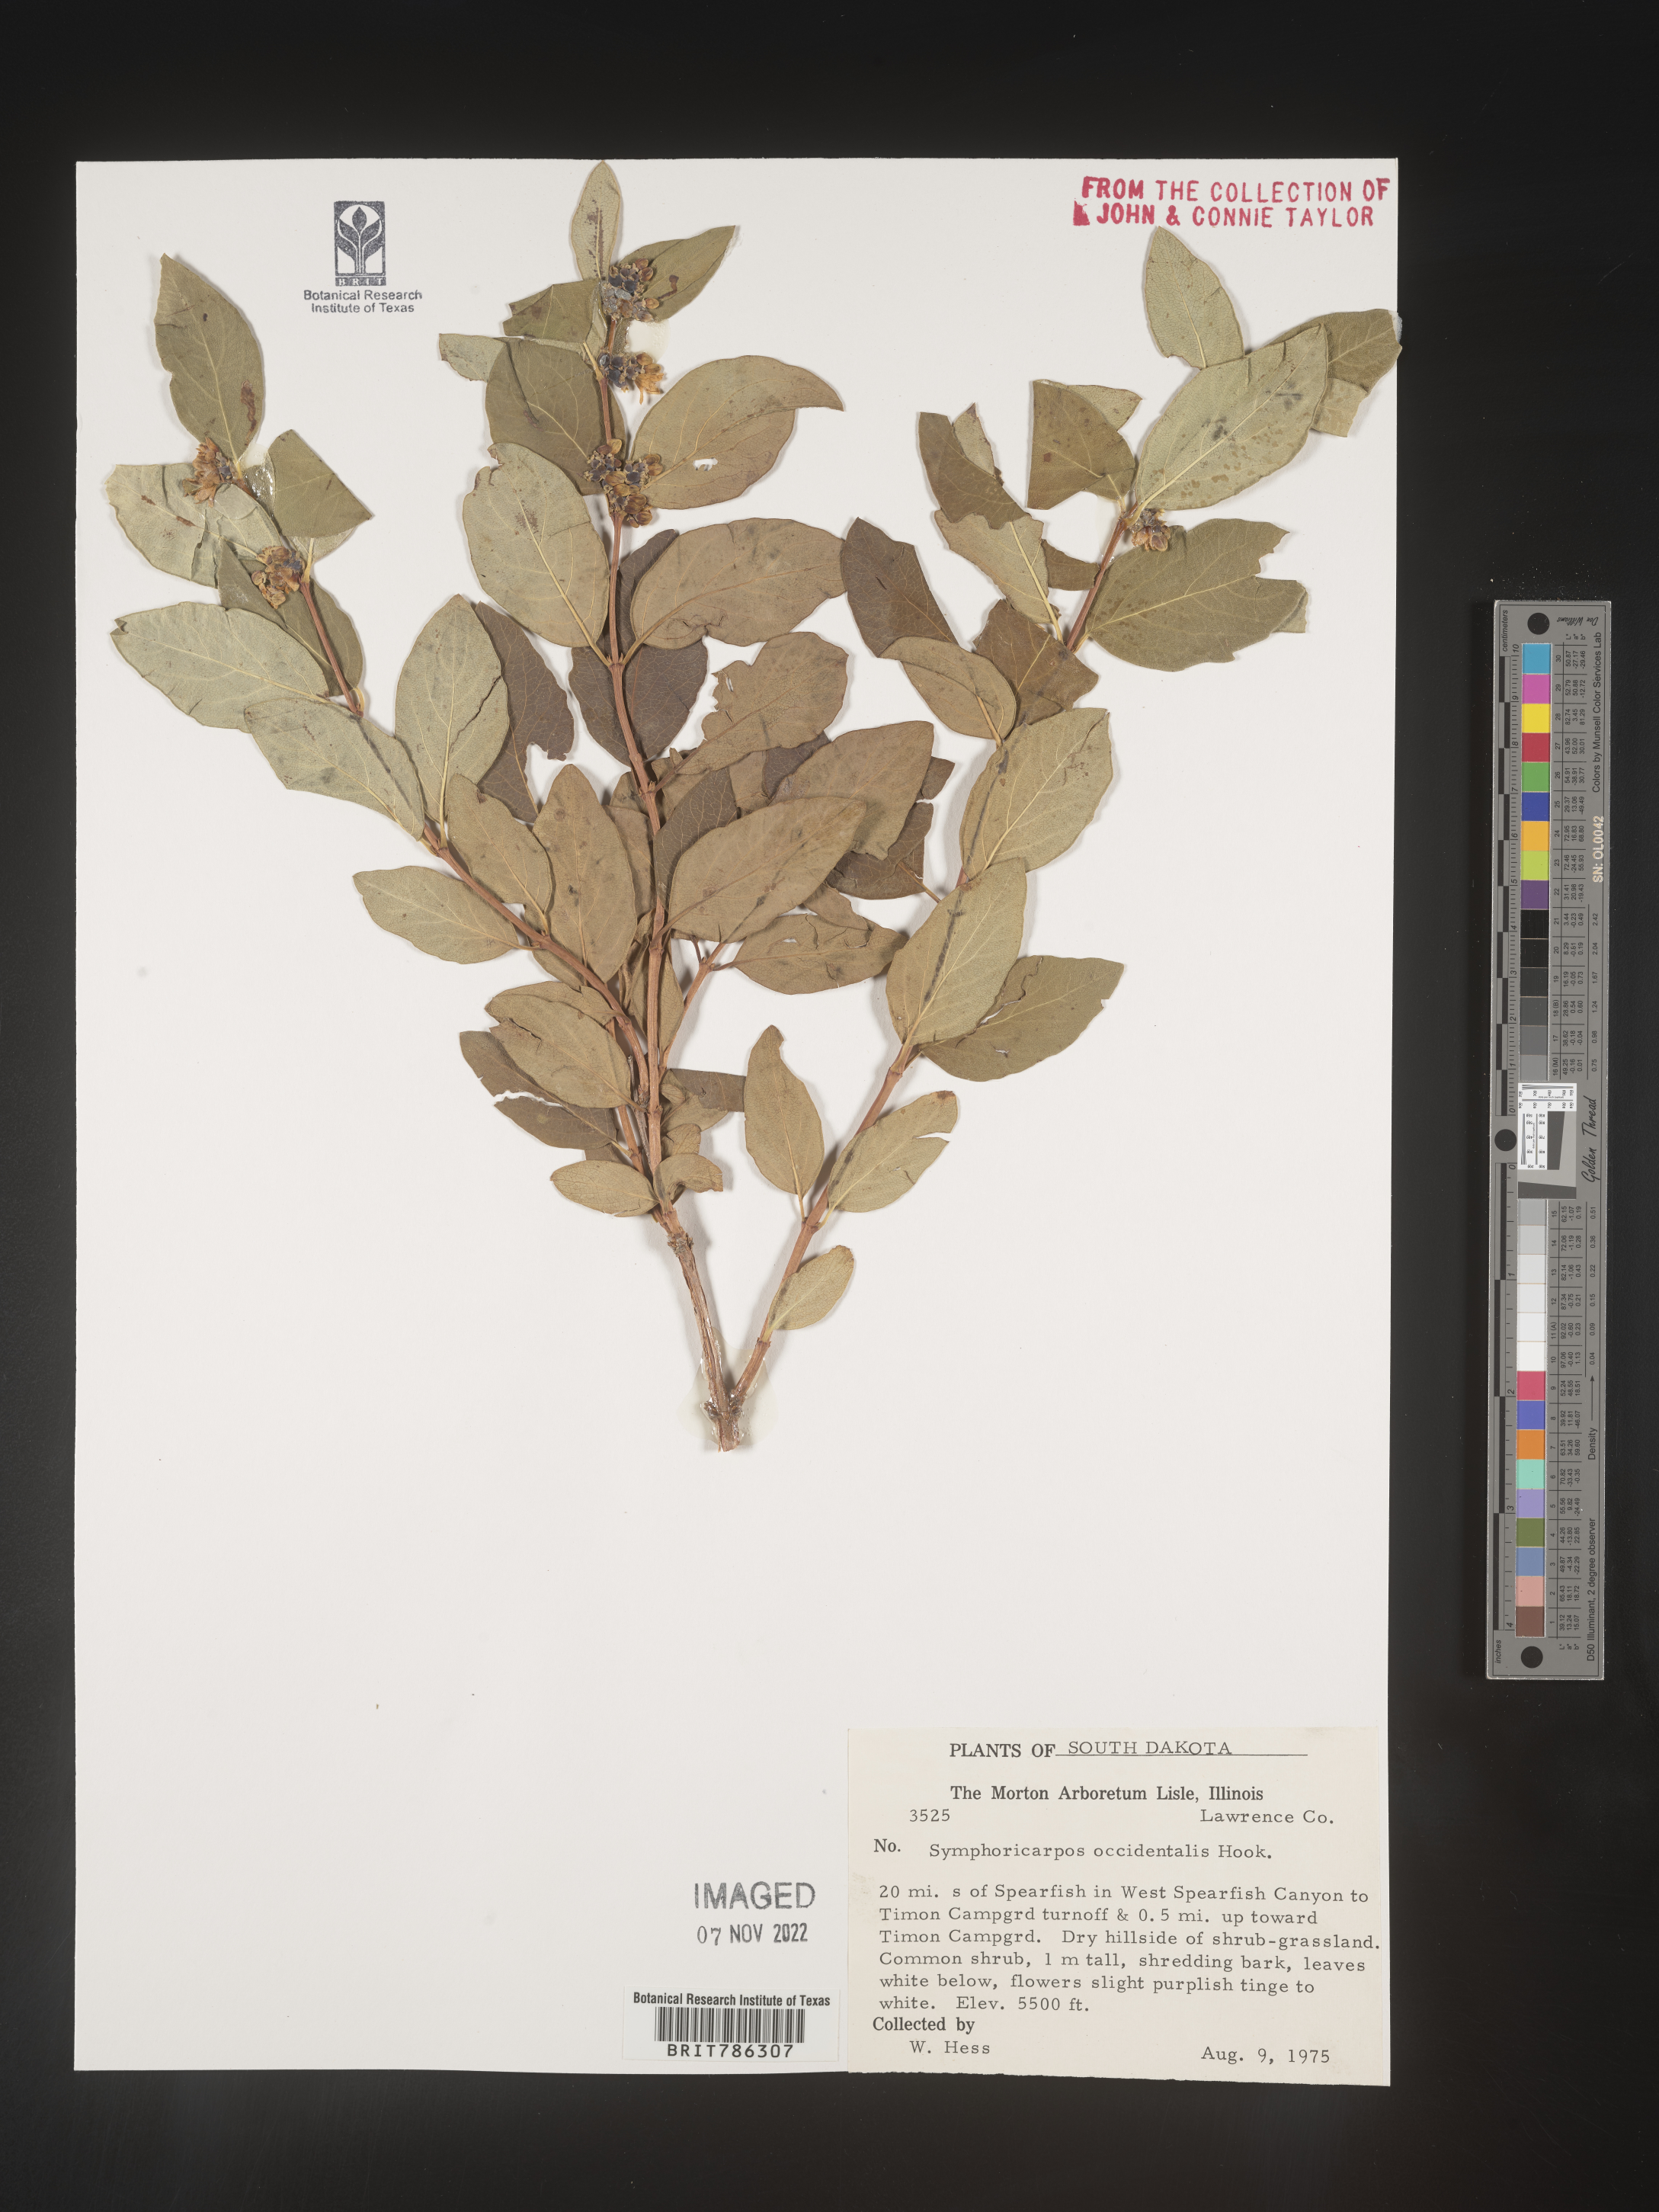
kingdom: Plantae
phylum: Tracheophyta
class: Magnoliopsida
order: Dipsacales
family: Caprifoliaceae
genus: Symphoricarpos
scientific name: Symphoricarpos occidentalis
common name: Wolfberry
